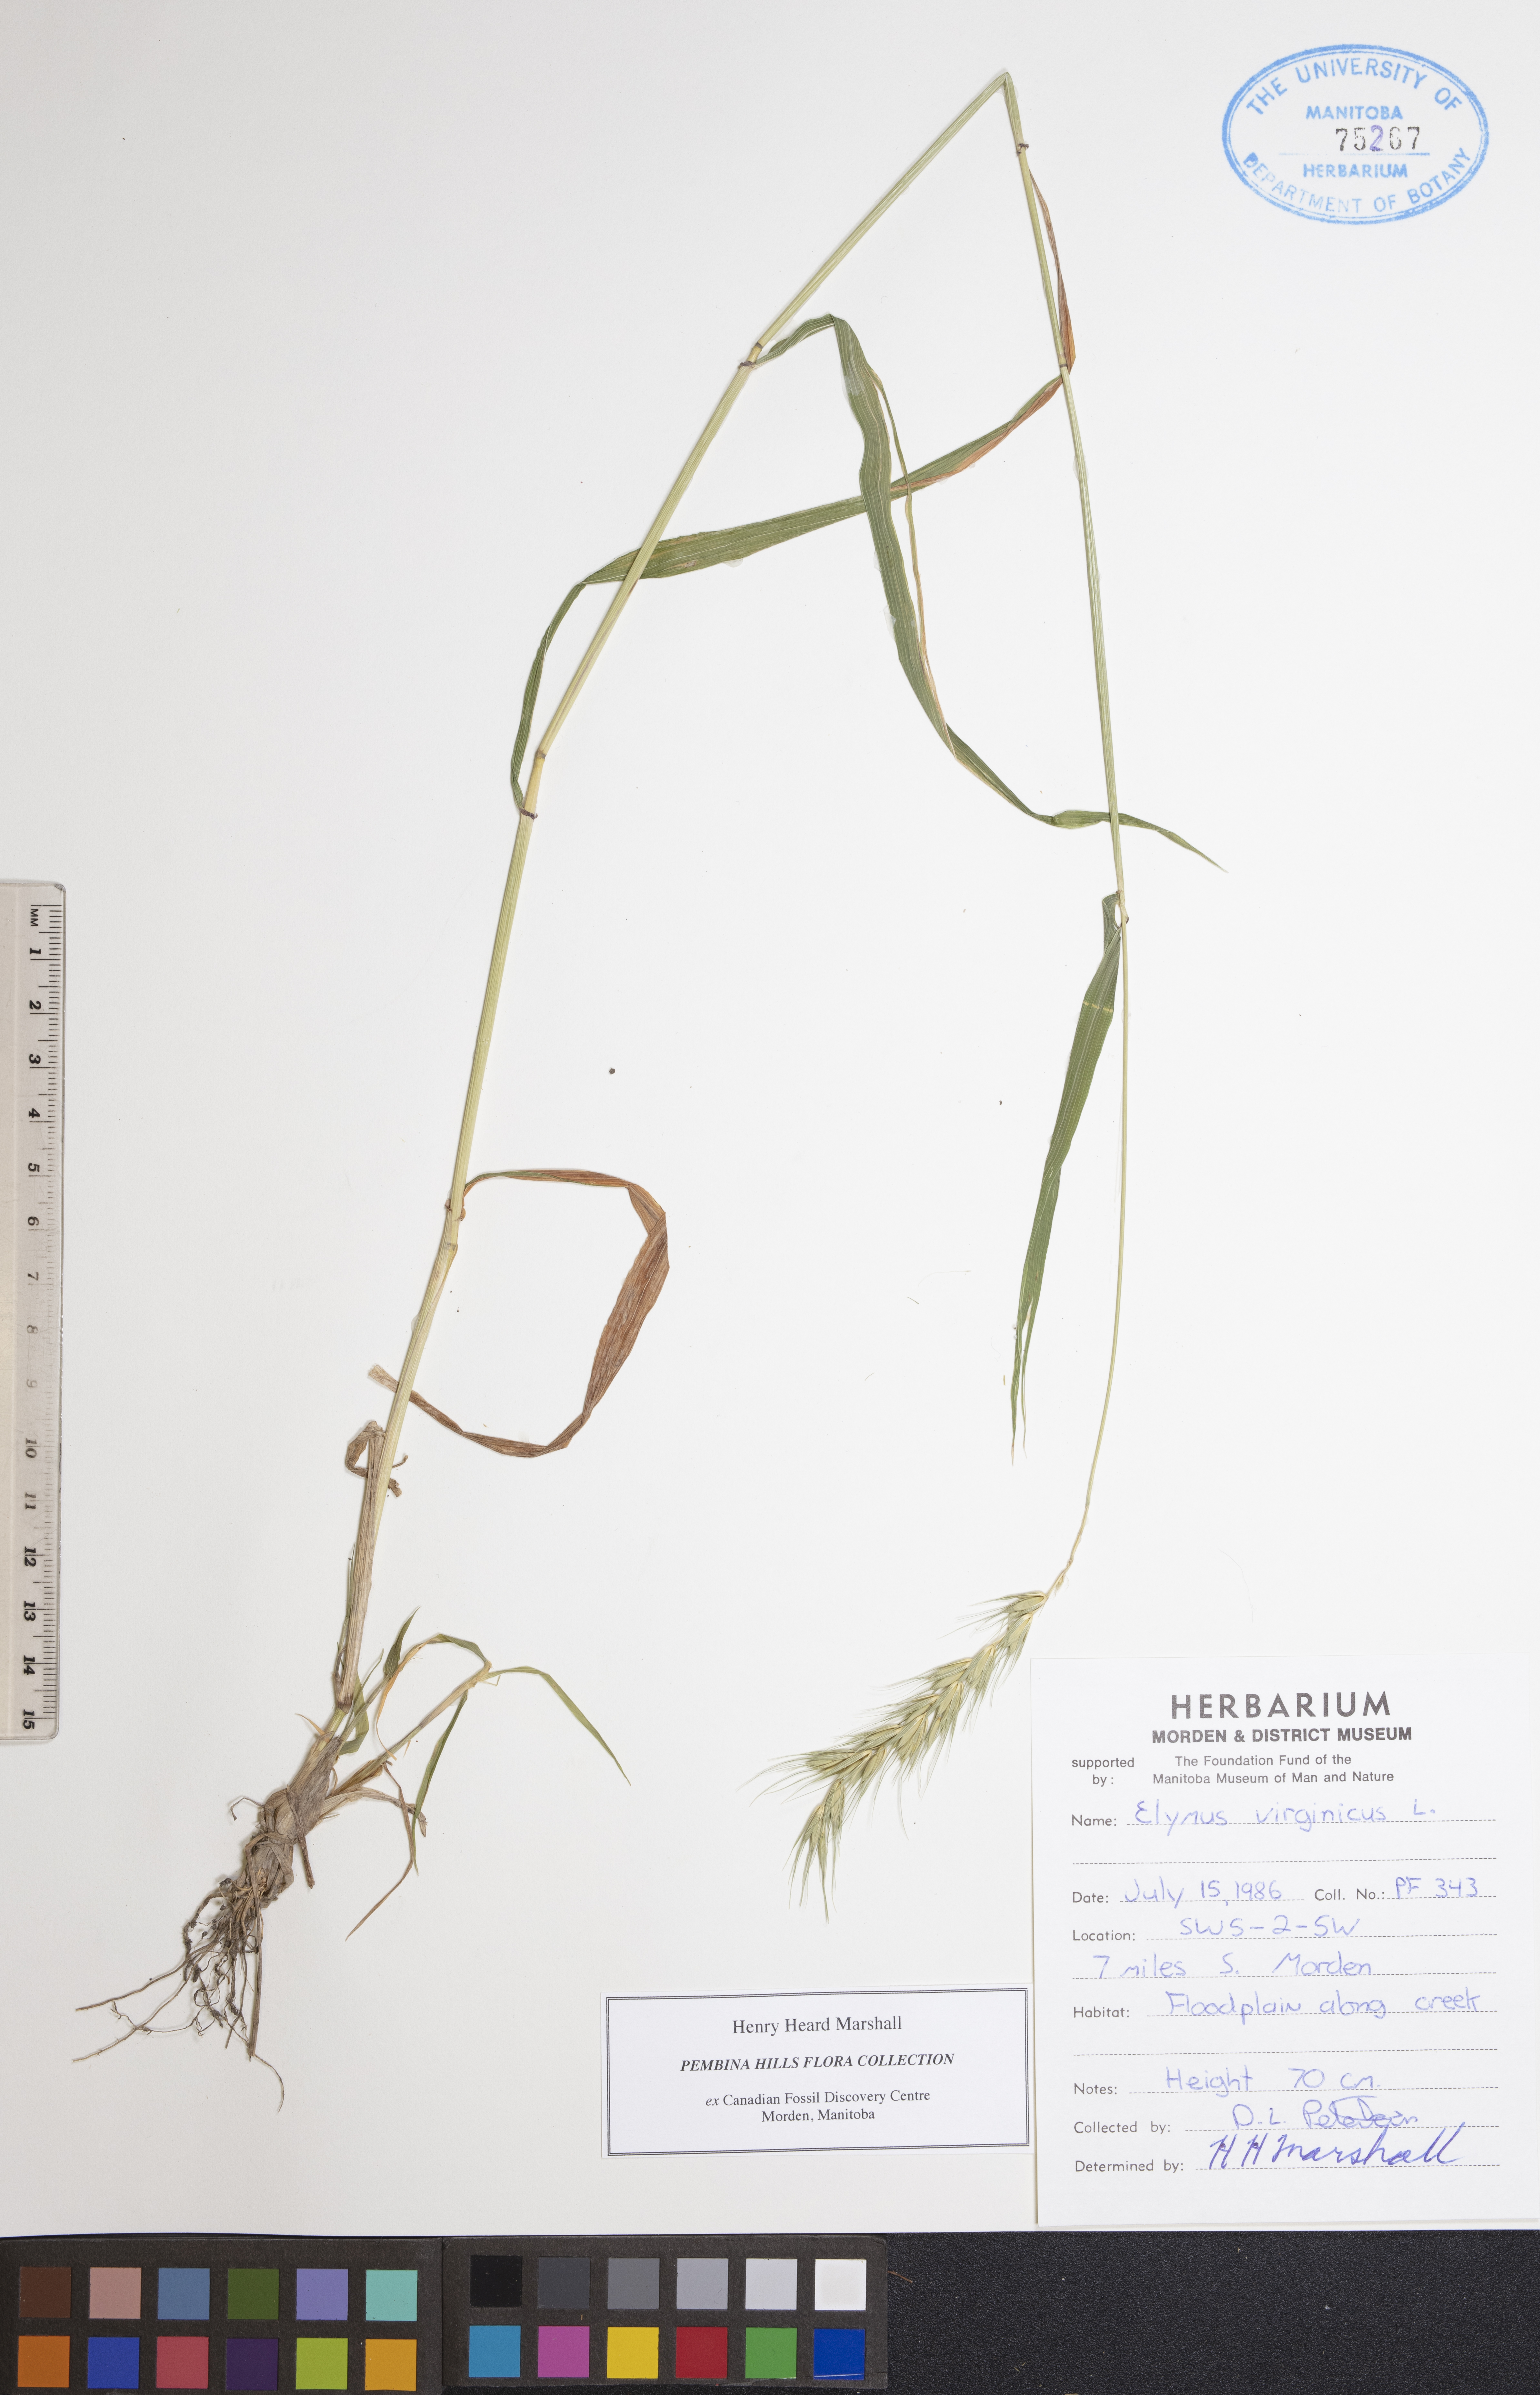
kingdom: Plantae
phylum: Tracheophyta
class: Liliopsida
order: Poales
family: Poaceae
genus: Elymus
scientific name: Elymus virginicus
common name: Common eastern wildrye
